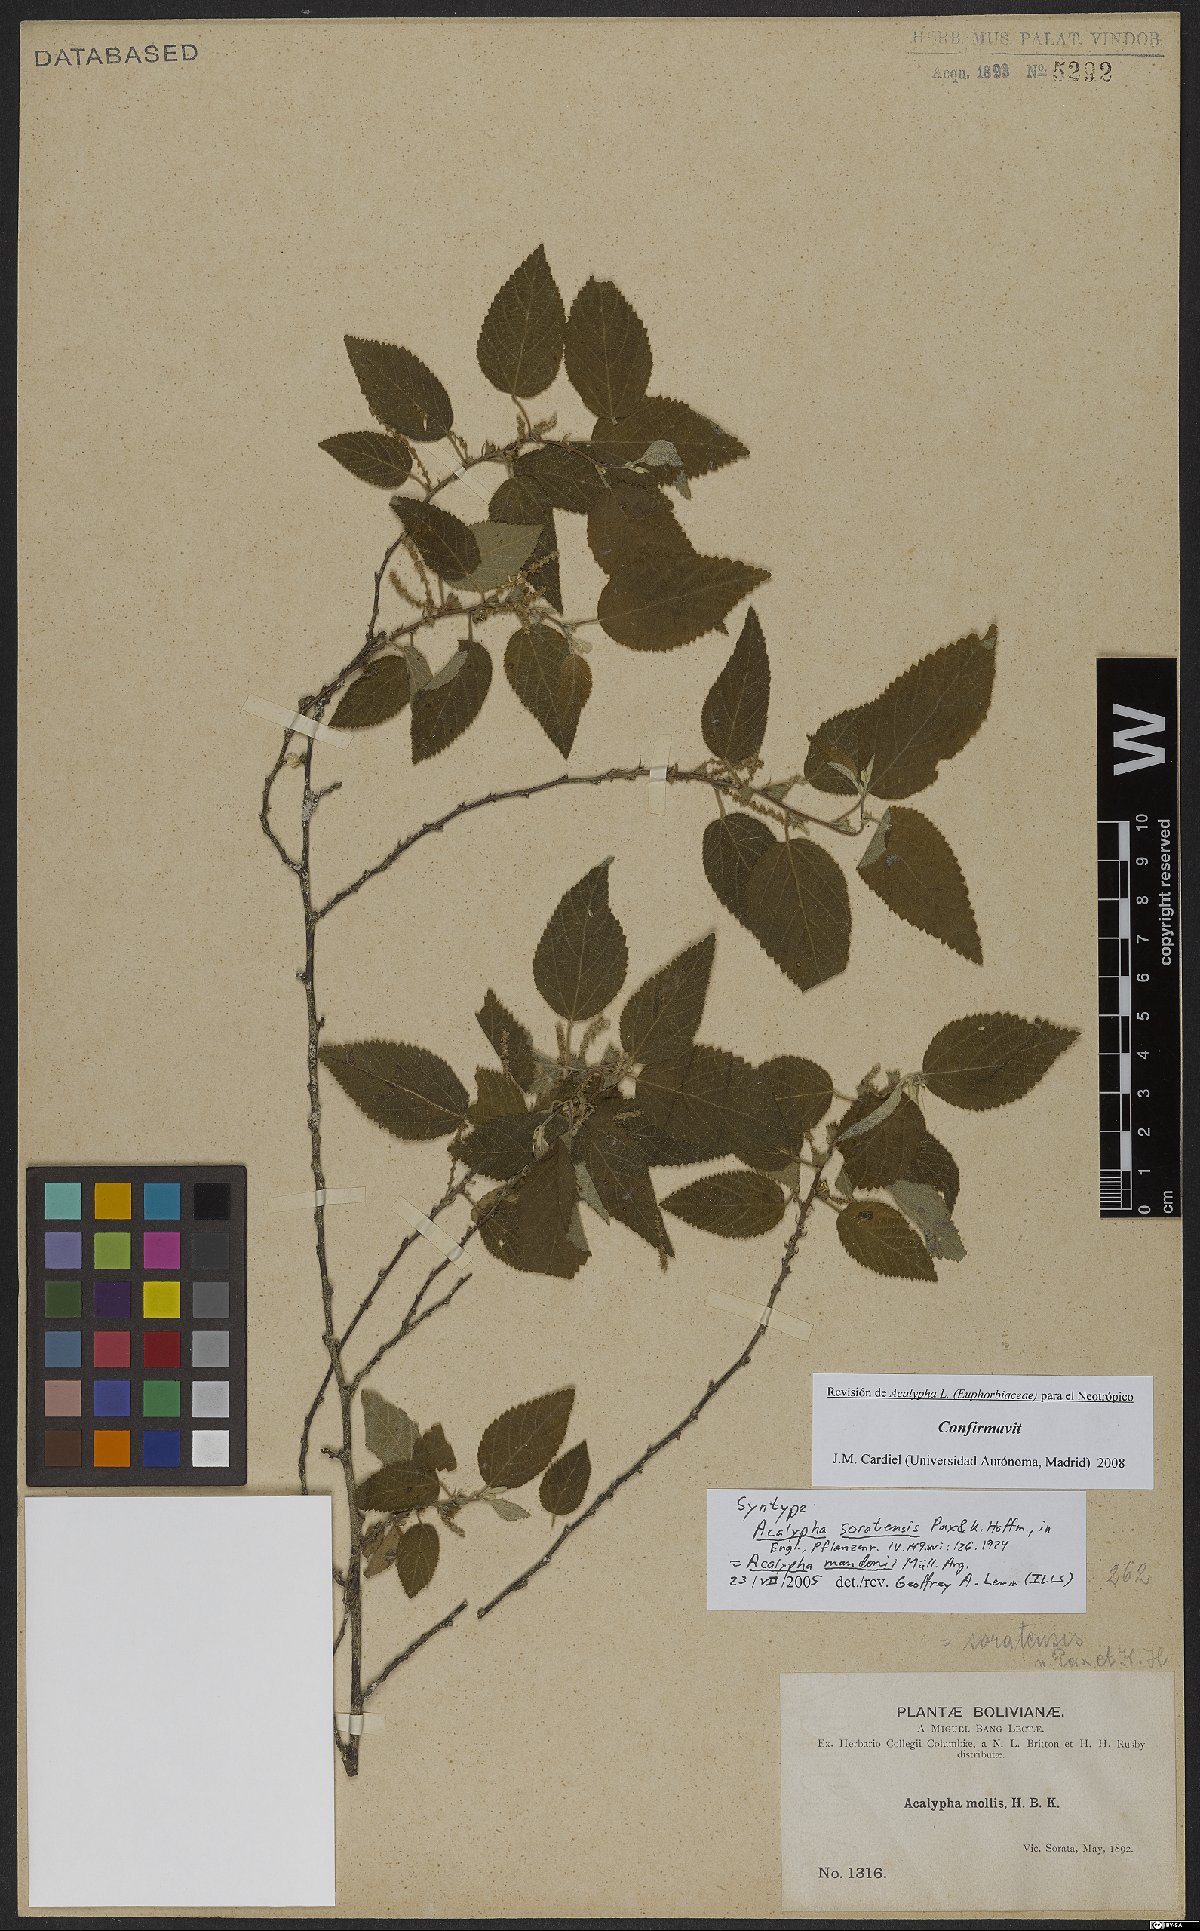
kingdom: Plantae
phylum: Tracheophyta
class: Magnoliopsida
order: Malpighiales
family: Euphorbiaceae
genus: Acalypha
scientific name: Acalypha reflexa
